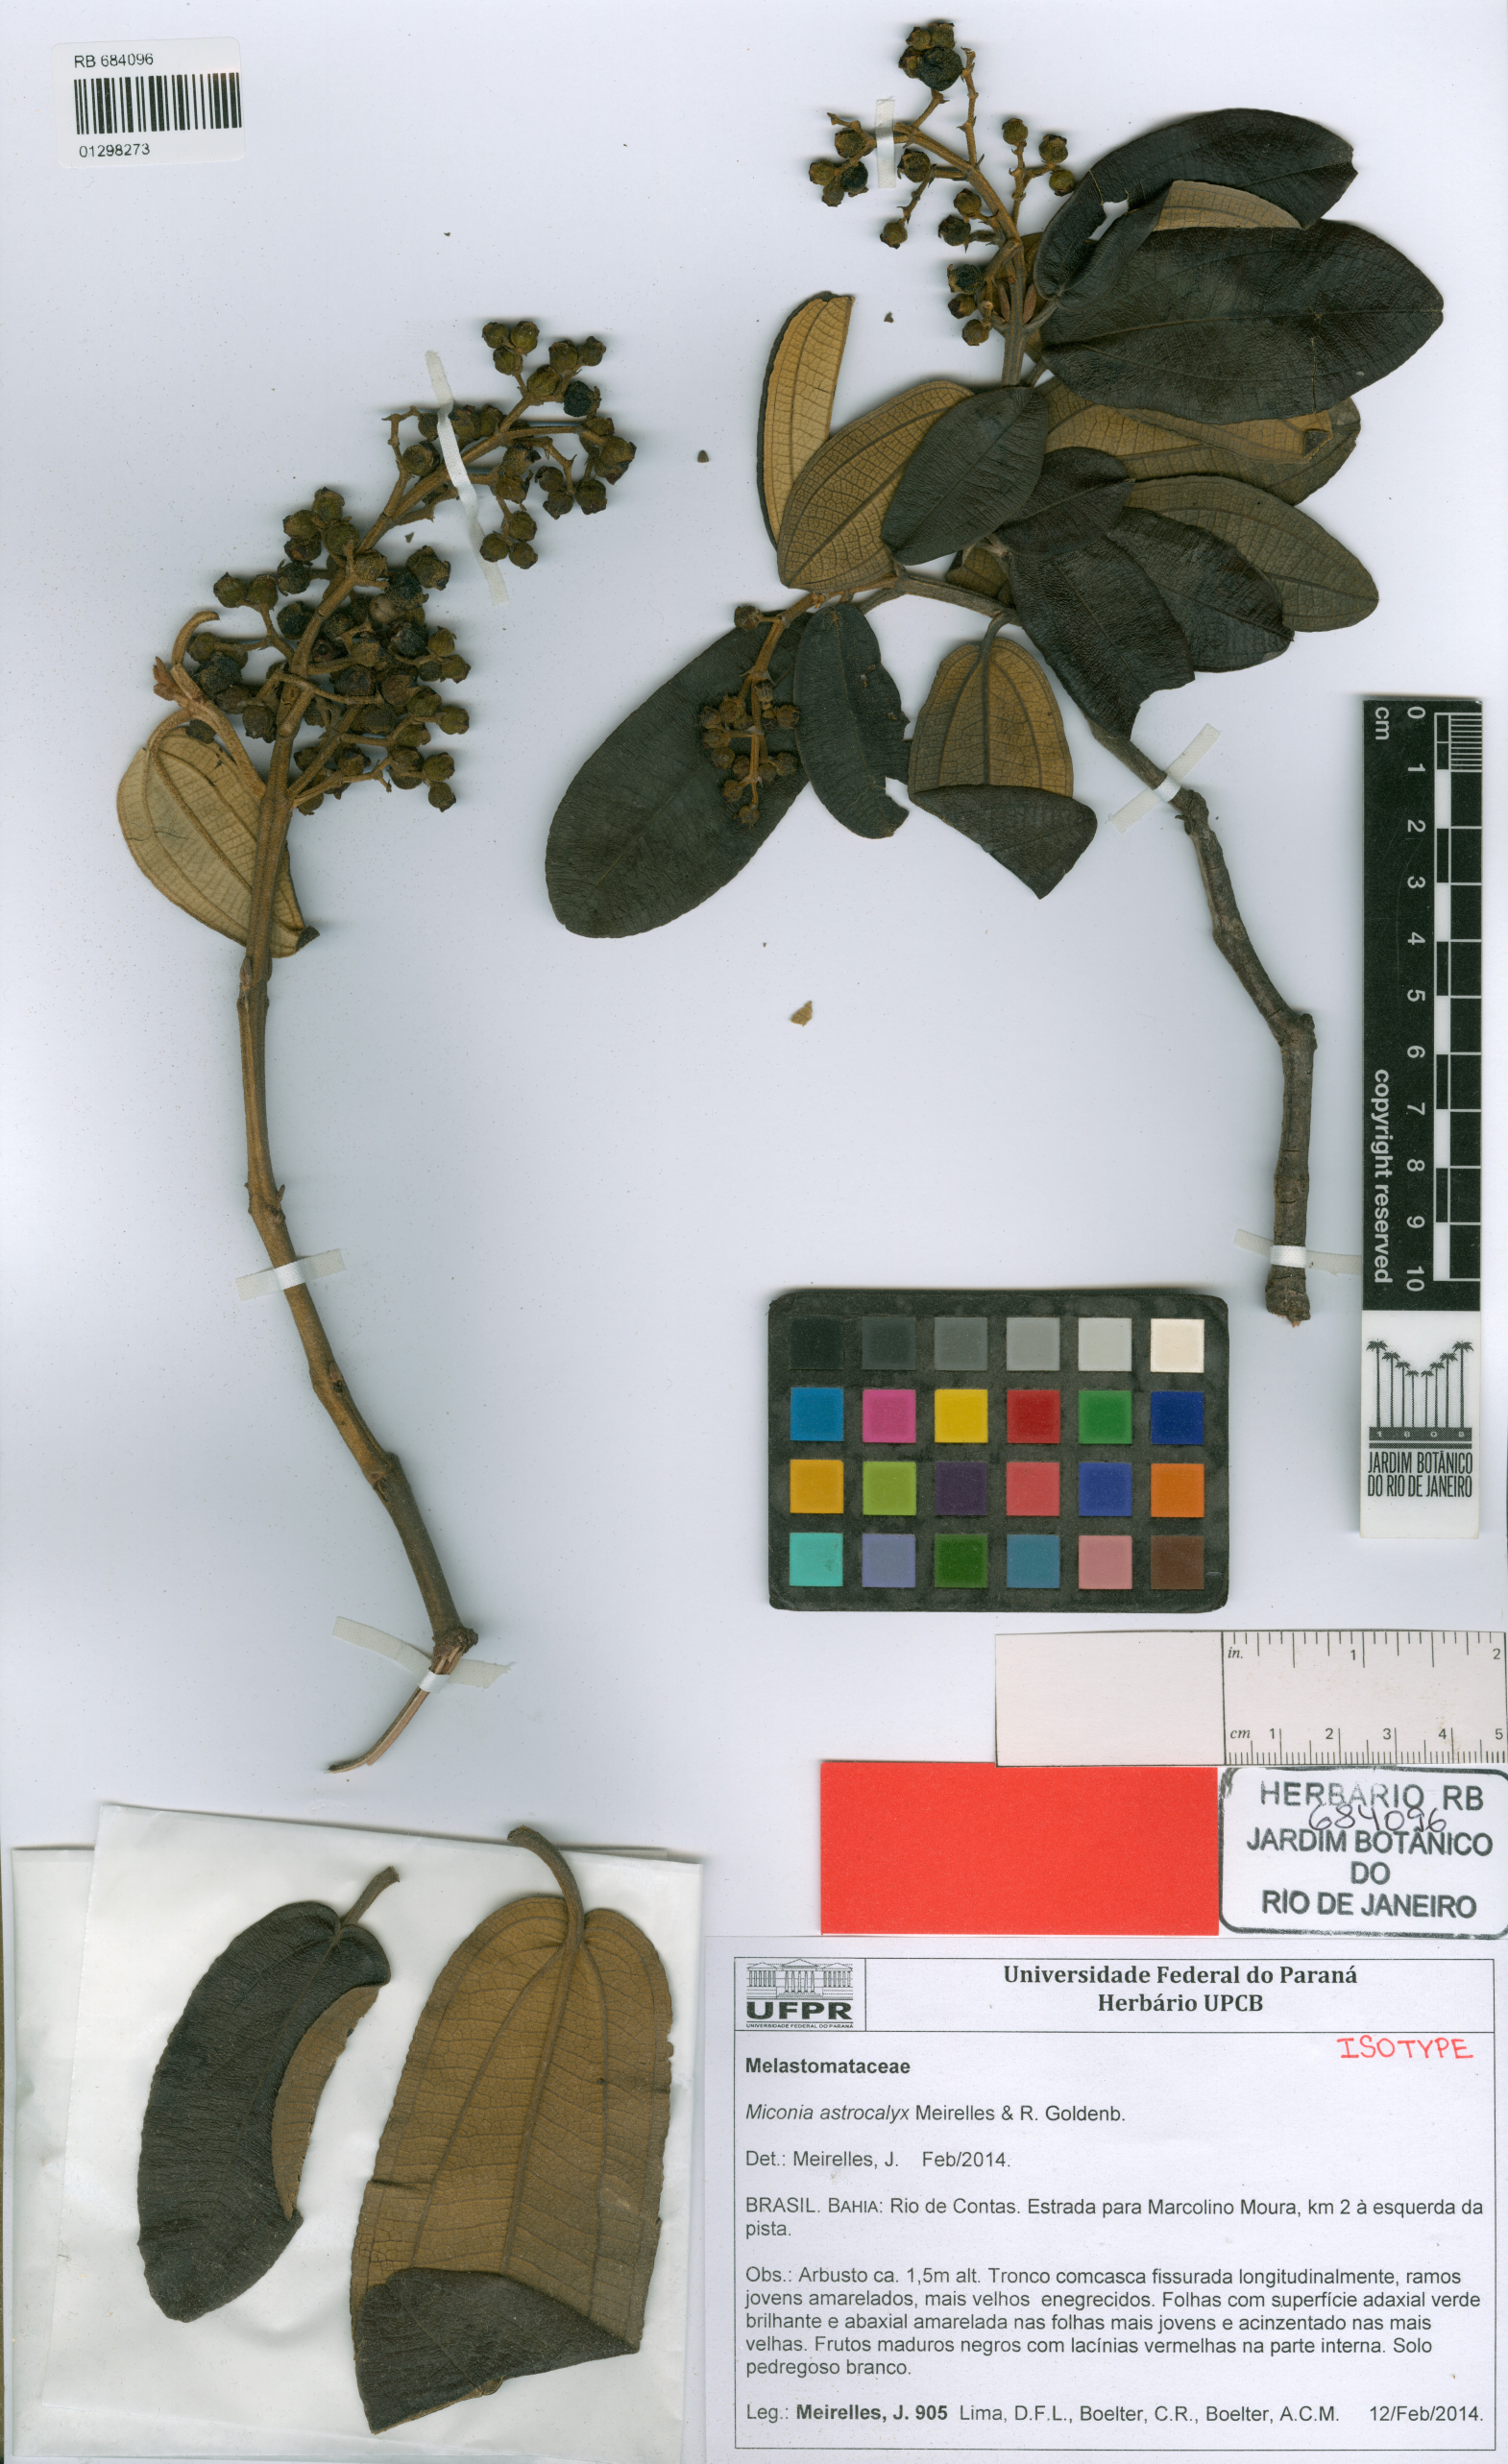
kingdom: Plantae
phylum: Tracheophyta
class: Magnoliopsida
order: Myrtales
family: Melastomataceae
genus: Miconia
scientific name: Miconia astrocalyx
